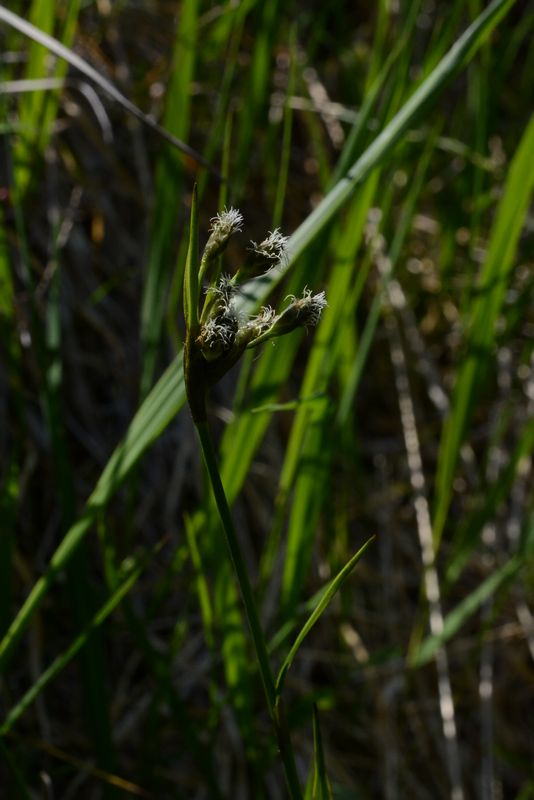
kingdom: Plantae
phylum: Tracheophyta
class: Liliopsida
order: Poales
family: Cyperaceae
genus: Eriophorum
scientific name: Eriophorum latifolium
